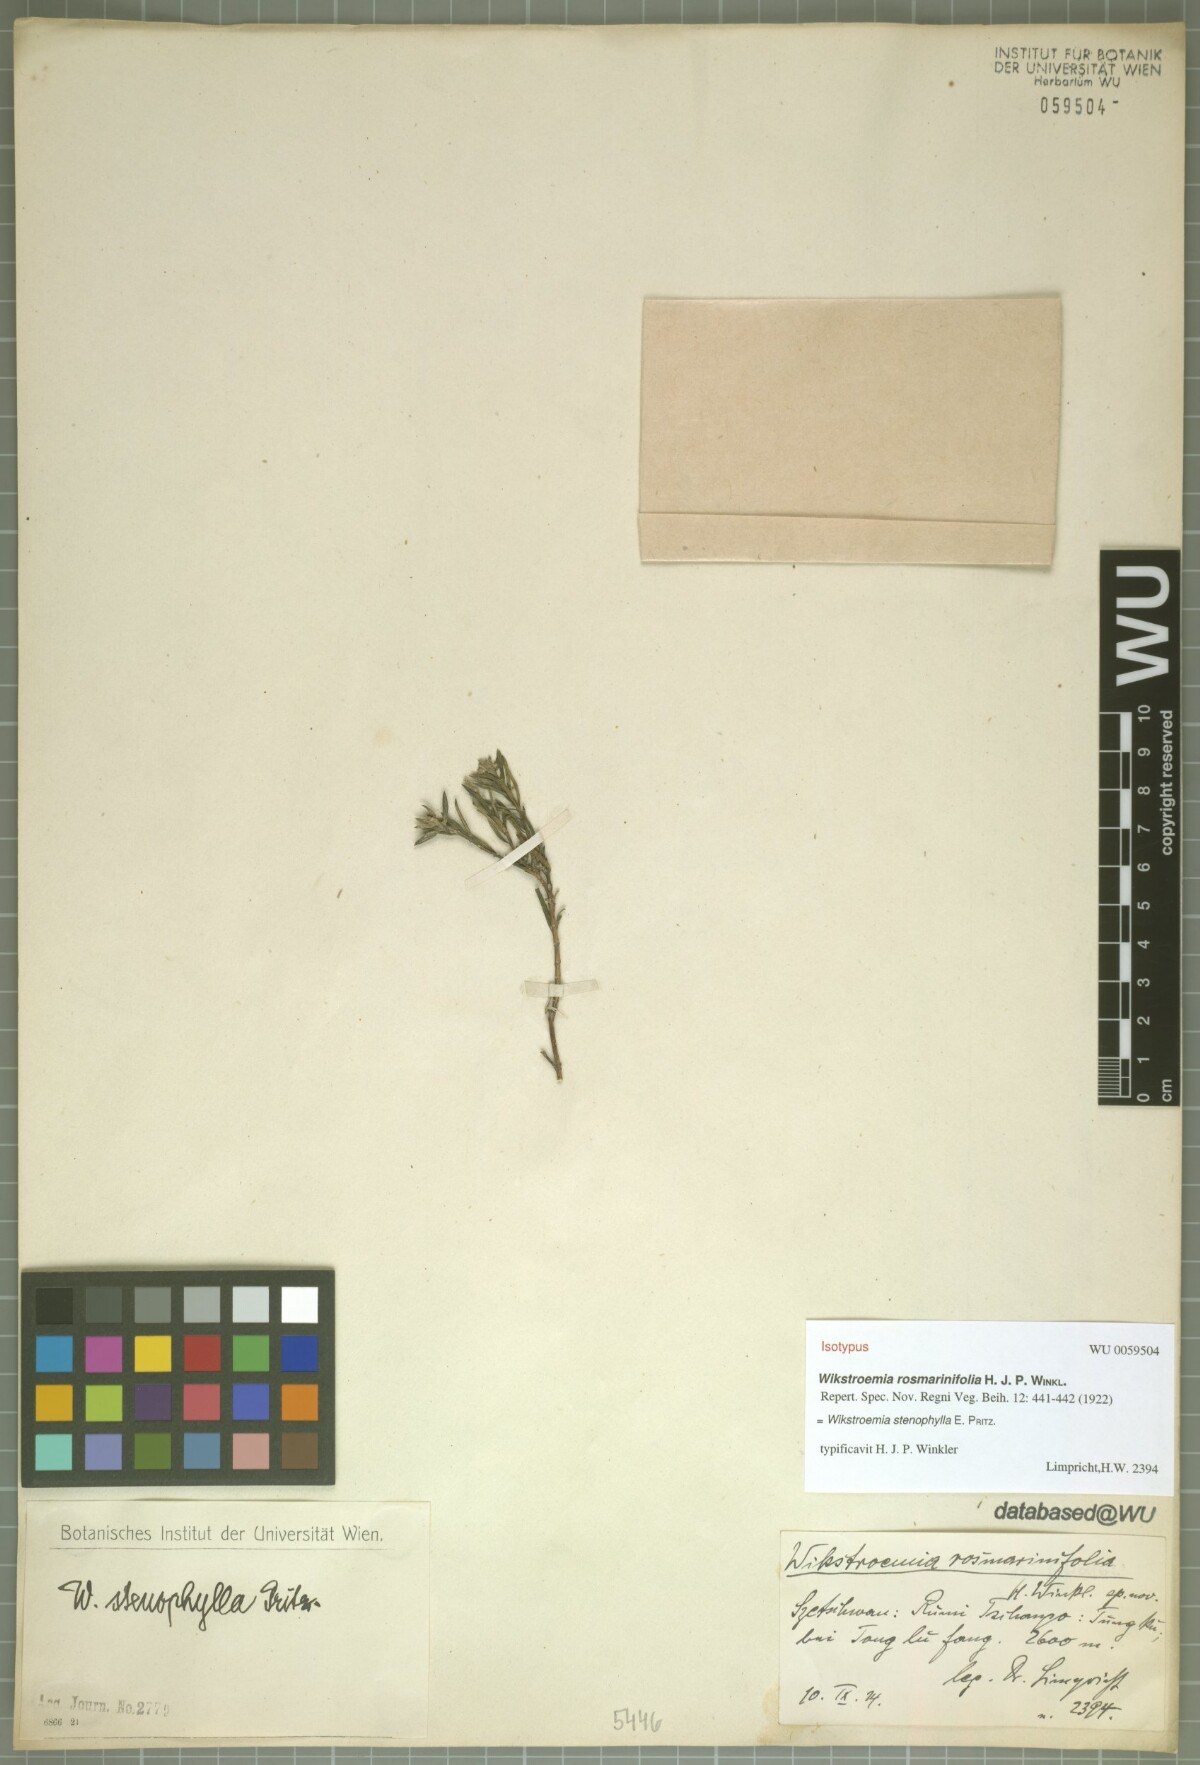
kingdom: Plantae
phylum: Tracheophyta
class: Magnoliopsida
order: Malvales
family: Thymelaeaceae
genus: Wikstroemia
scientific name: Wikstroemia stenophylla
